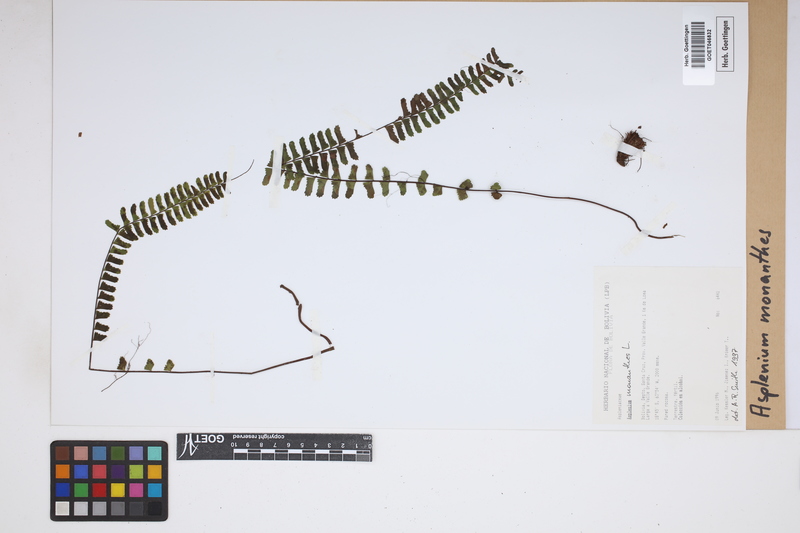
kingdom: Plantae
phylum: Tracheophyta
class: Polypodiopsida
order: Polypodiales
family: Aspleniaceae
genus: Asplenium
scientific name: Asplenium monanthes
